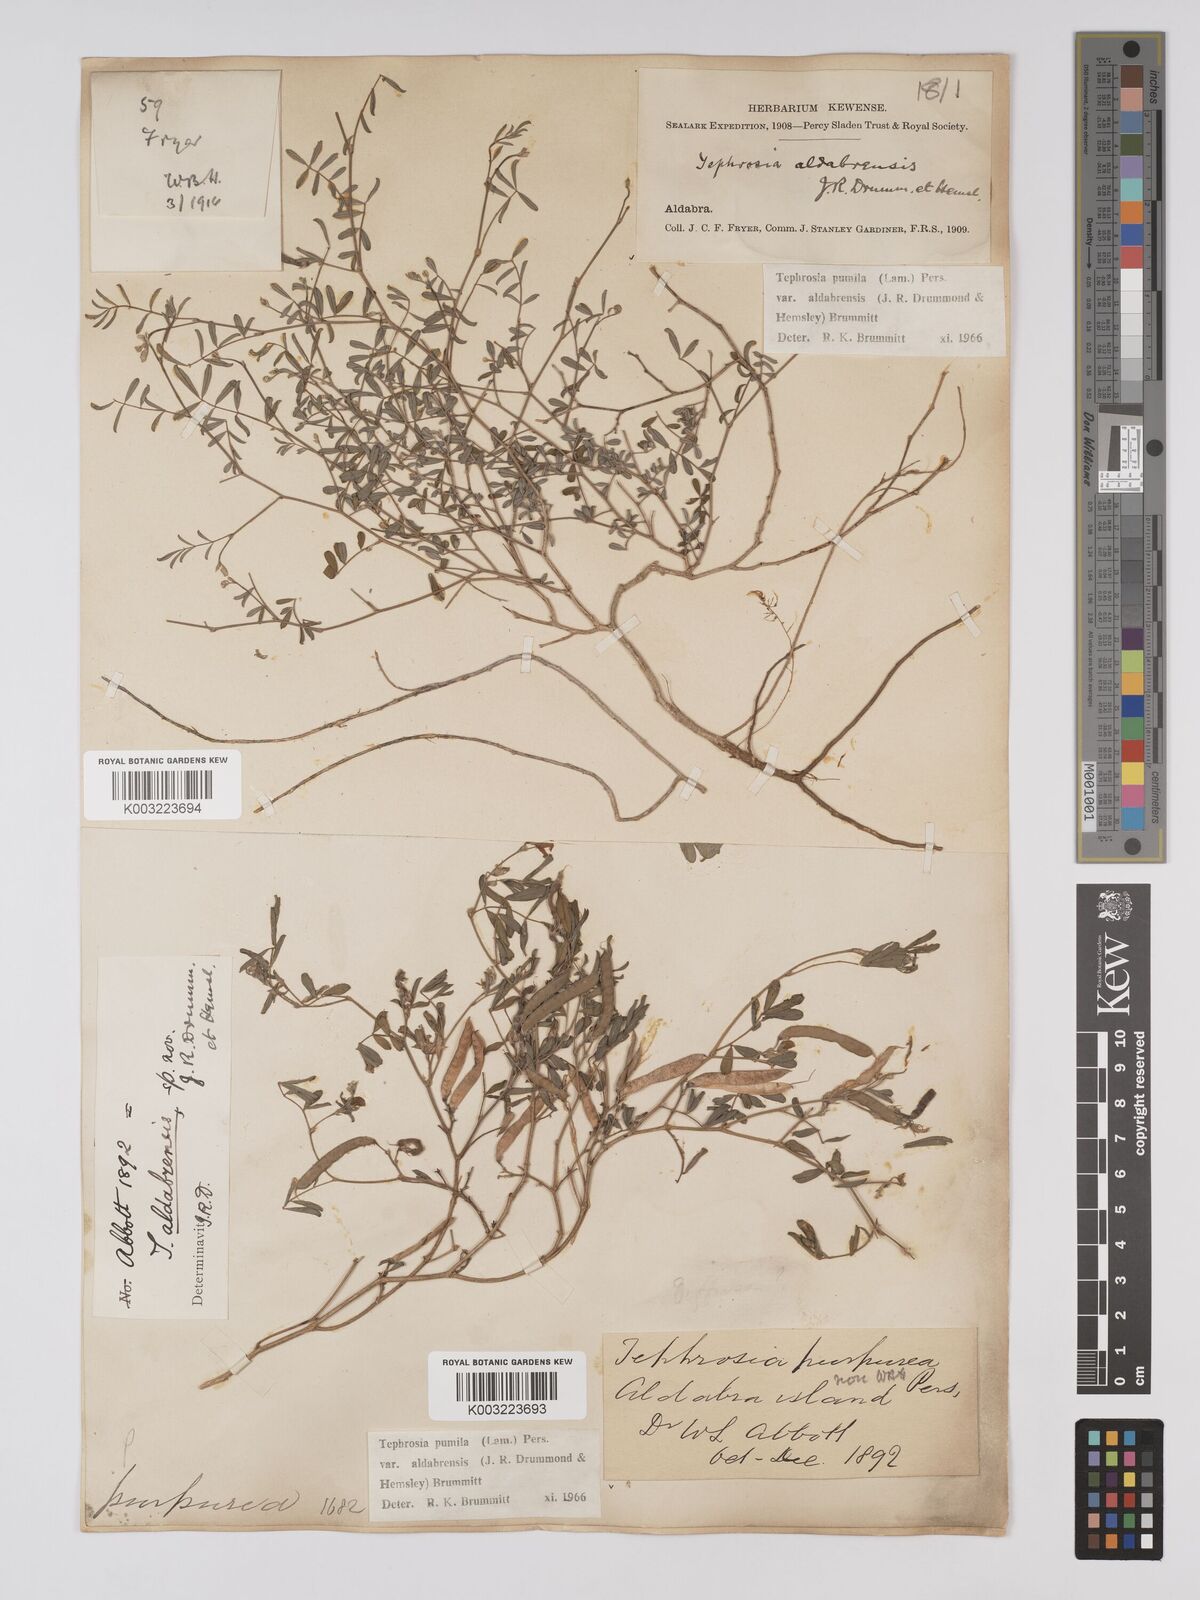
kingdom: Plantae
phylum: Tracheophyta
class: Magnoliopsida
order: Fabales
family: Fabaceae
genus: Tephrosia
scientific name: Tephrosia pumila
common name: Indigo sauvage
